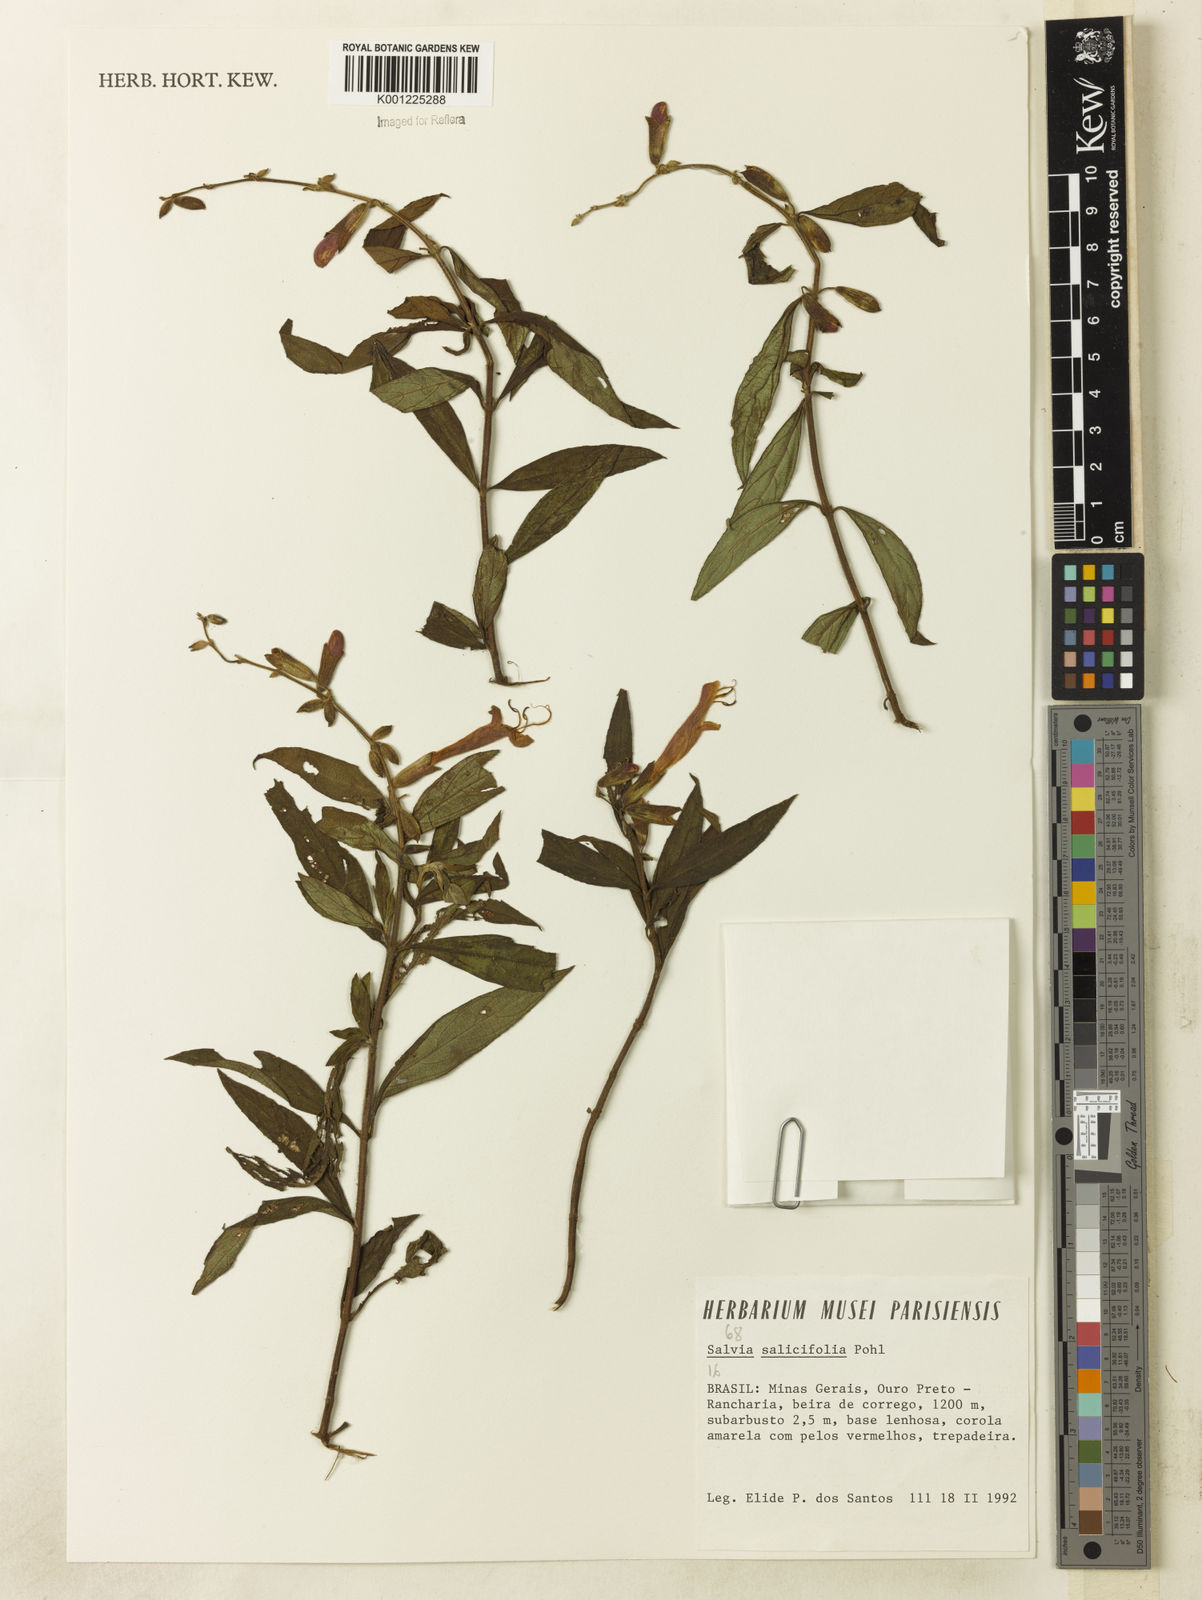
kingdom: Plantae
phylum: Tracheophyta
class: Magnoliopsida
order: Lamiales
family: Lamiaceae
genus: Salvia
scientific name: Salvia salicifolia
